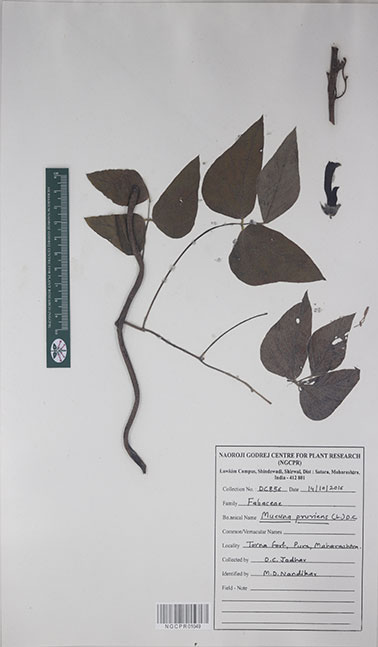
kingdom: Plantae
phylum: Tracheophyta
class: Magnoliopsida
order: Fabales
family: Fabaceae
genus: Mucuna
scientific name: Mucuna pruriens
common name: Cow-itch
